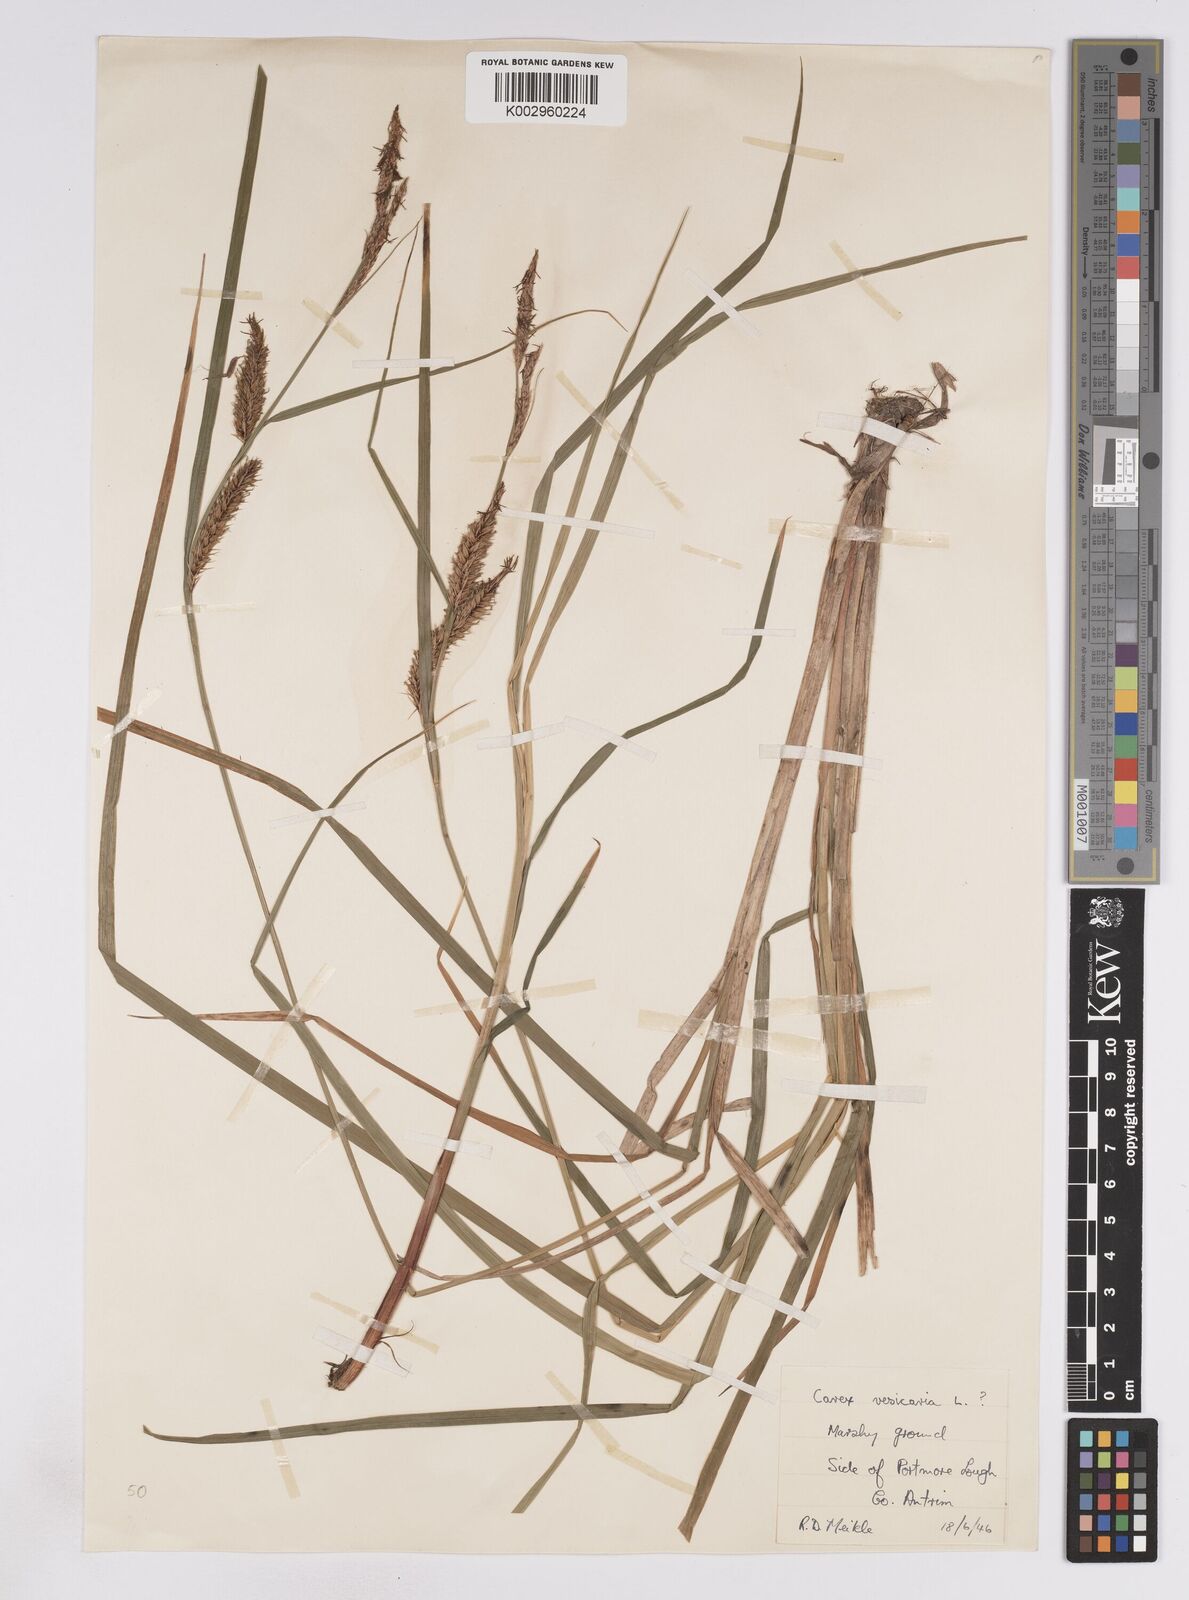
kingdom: Plantae
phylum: Tracheophyta
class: Liliopsida
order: Poales
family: Cyperaceae
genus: Carex
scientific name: Carex vesicaria
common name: Bladder-sedge
